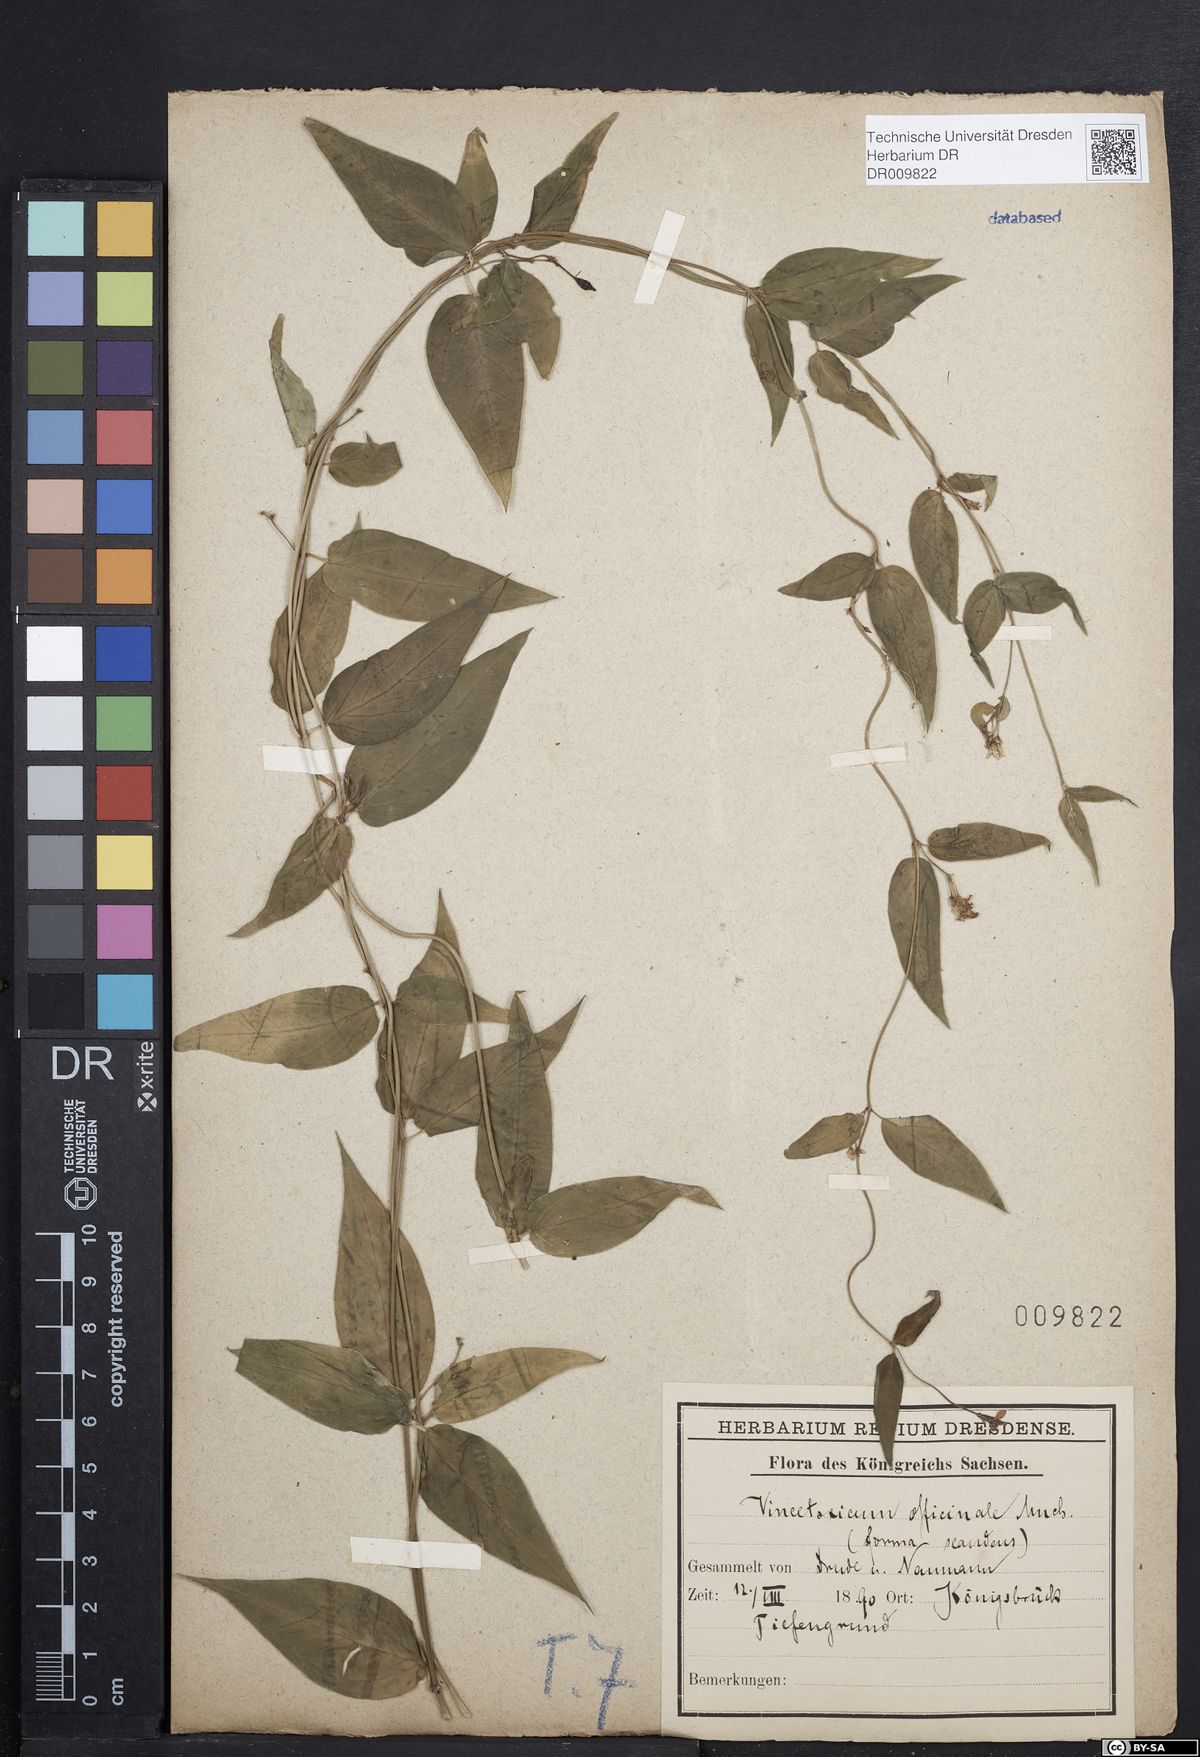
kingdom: Plantae
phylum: Tracheophyta
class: Magnoliopsida
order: Gentianales
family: Apocynaceae
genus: Vincetoxicum
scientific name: Vincetoxicum hirundinaria
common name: White swallowwort
